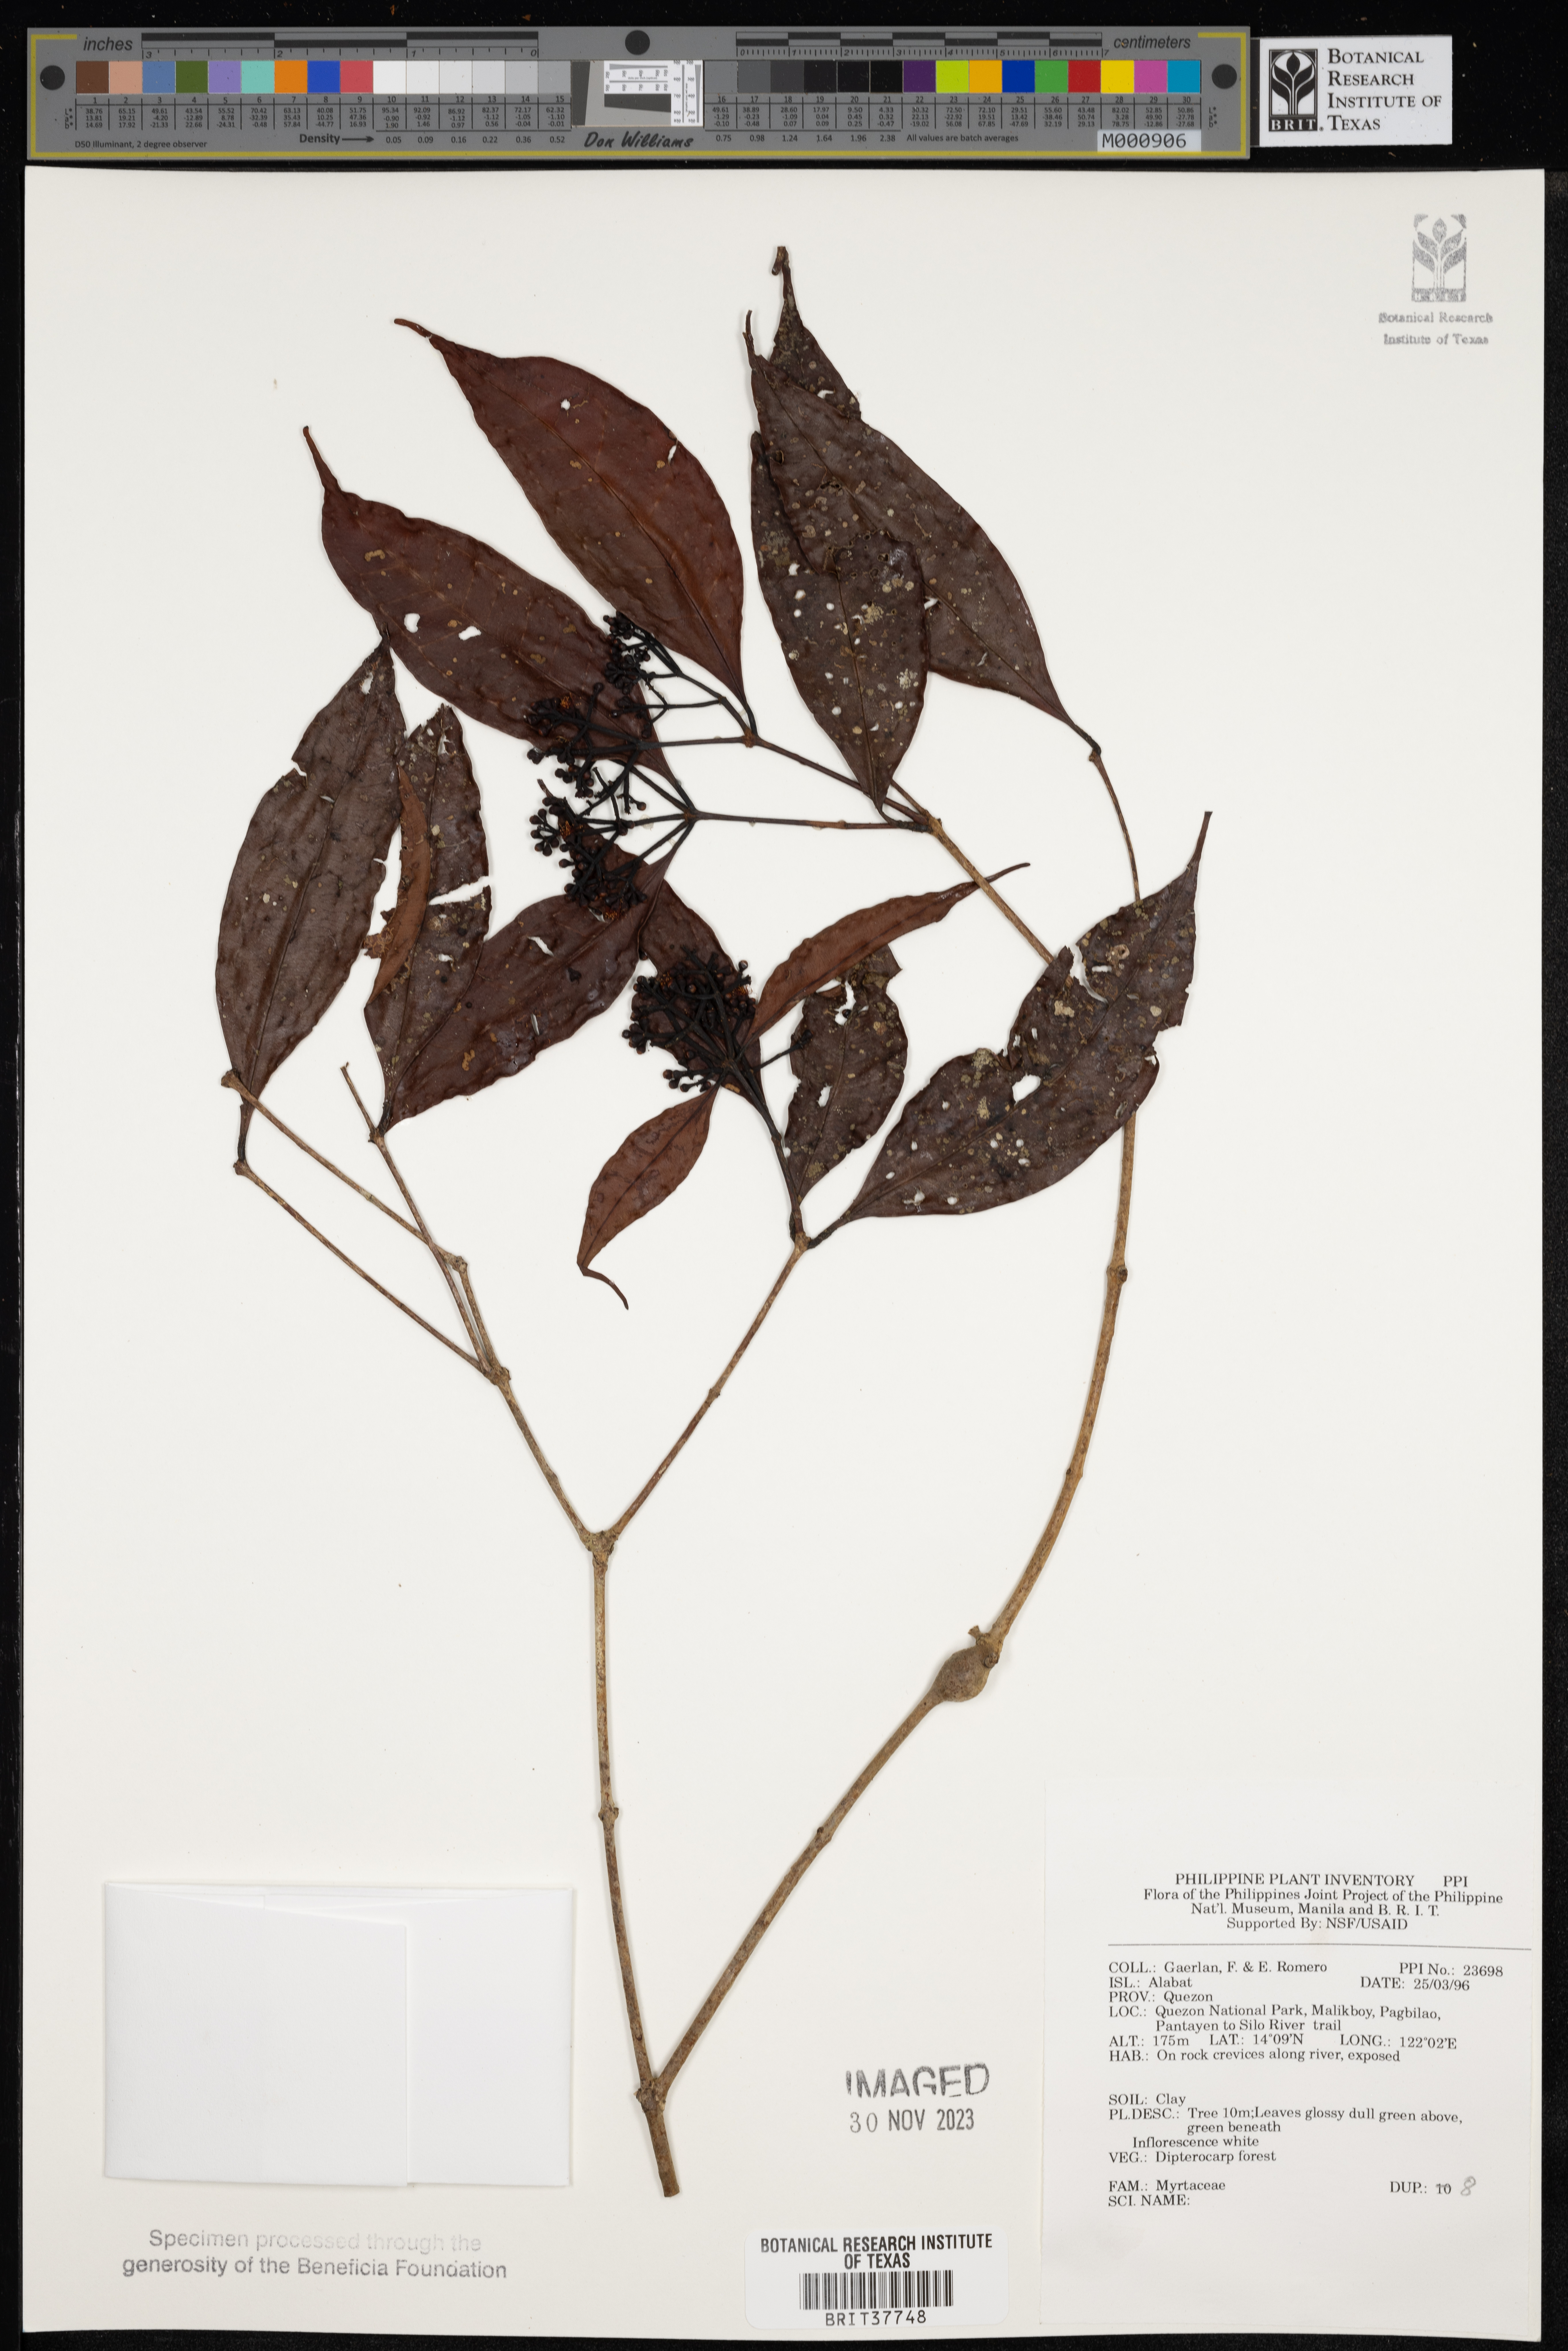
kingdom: Plantae
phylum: Tracheophyta
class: Magnoliopsida
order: Myrtales
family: Myrtaceae
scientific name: Myrtaceae
